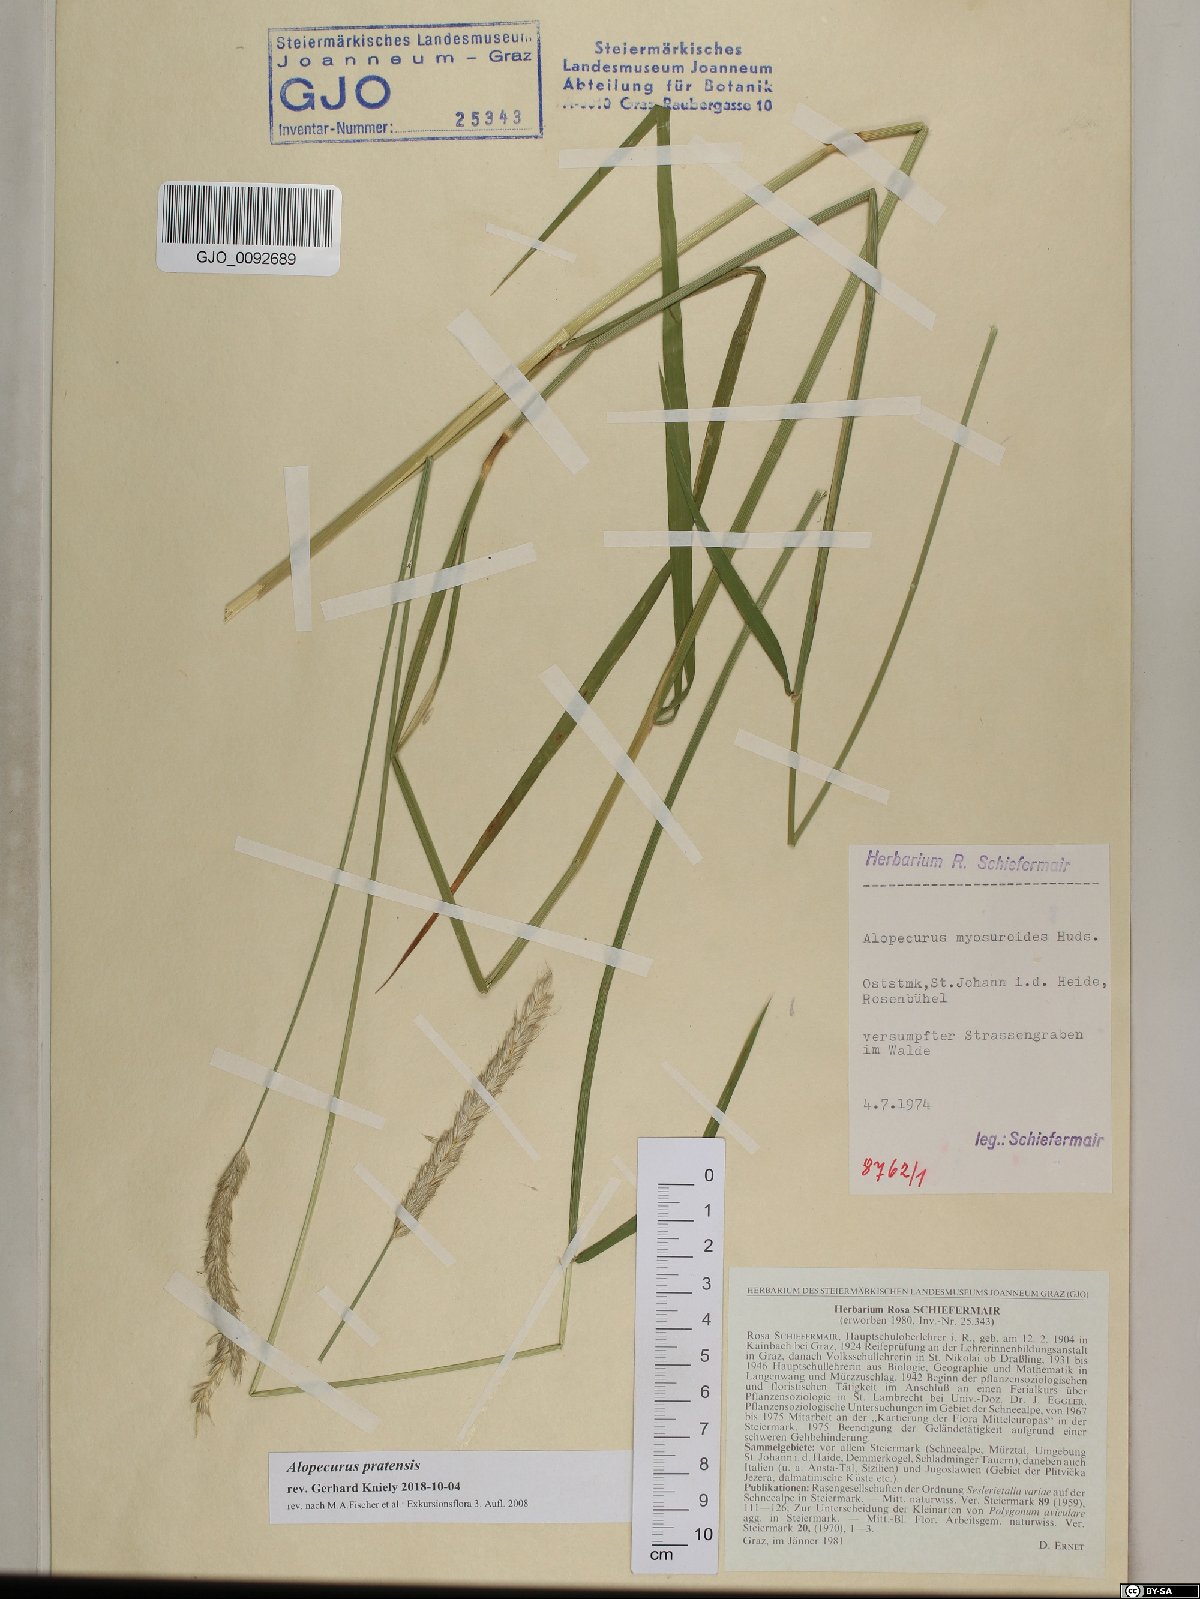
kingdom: Plantae
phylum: Tracheophyta
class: Liliopsida
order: Poales
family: Poaceae
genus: Alopecurus
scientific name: Alopecurus pratensis
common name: Meadow foxtail
